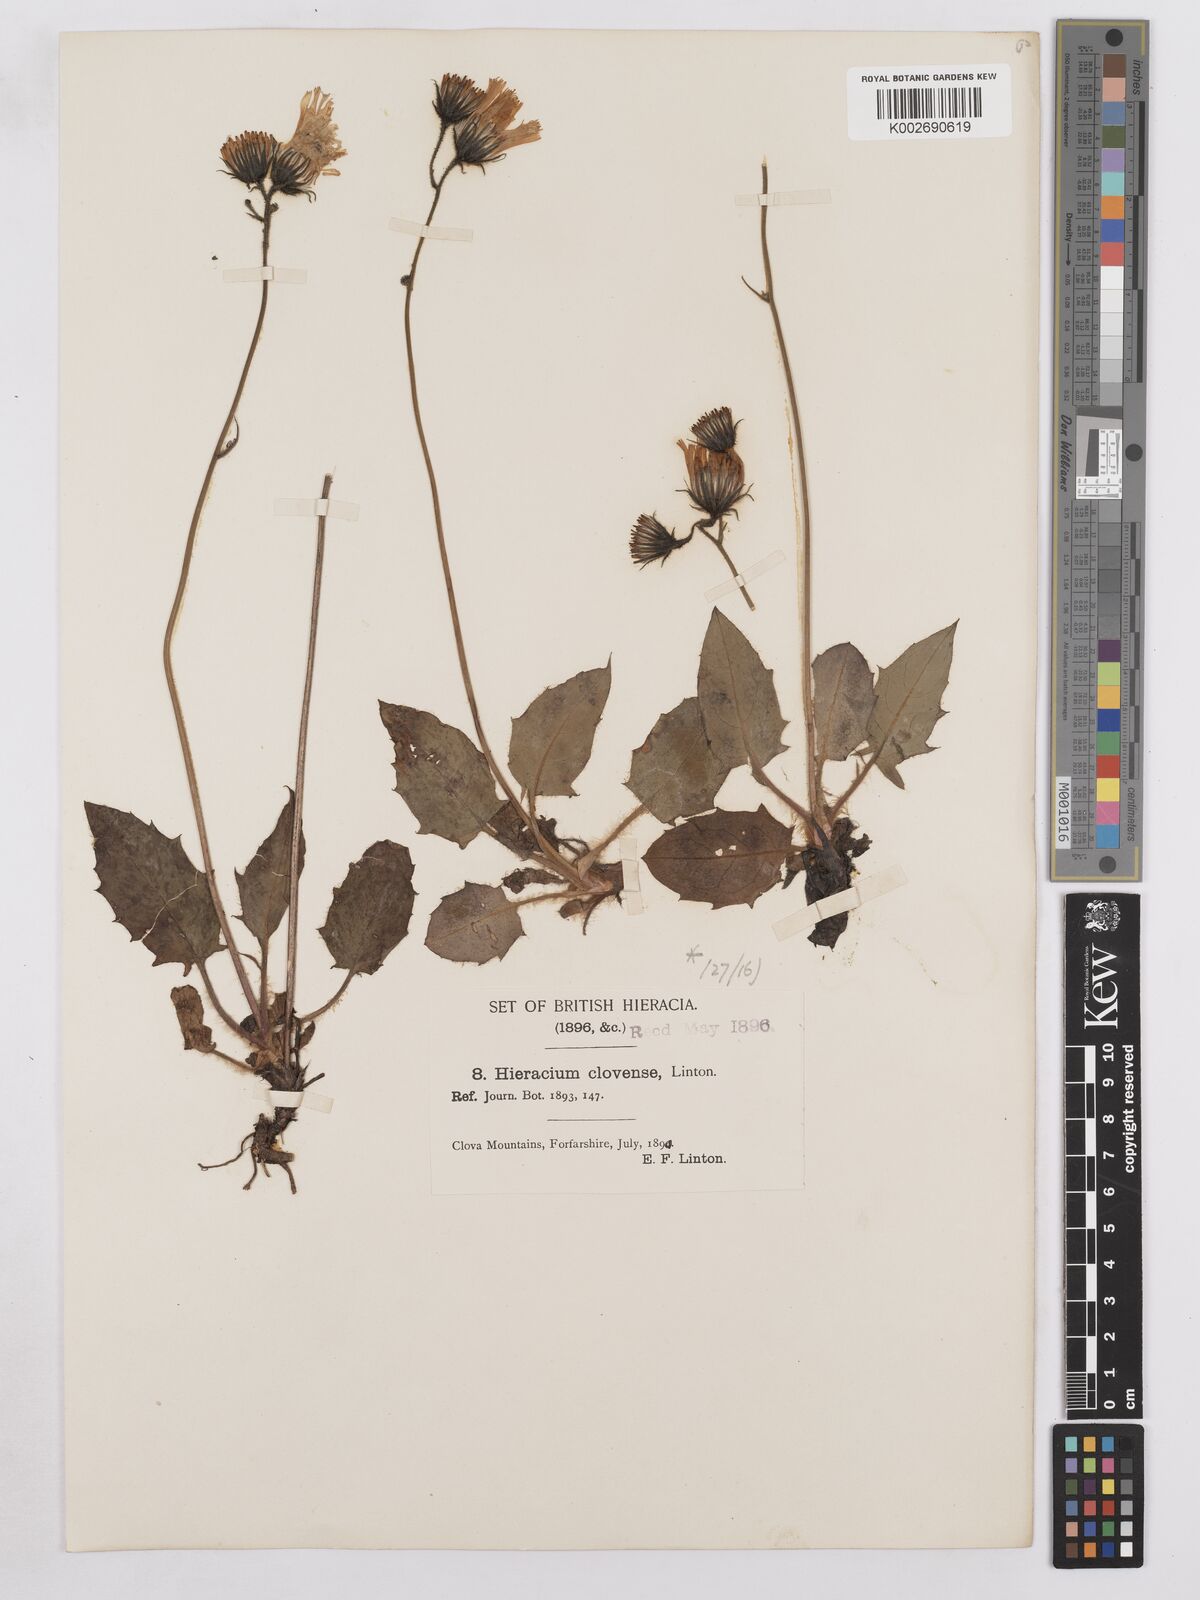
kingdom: Plantae
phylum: Tracheophyta
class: Magnoliopsida
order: Asterales
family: Asteraceae
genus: Hieracium
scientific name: Hieracium clovense
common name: Clova hawkweed
